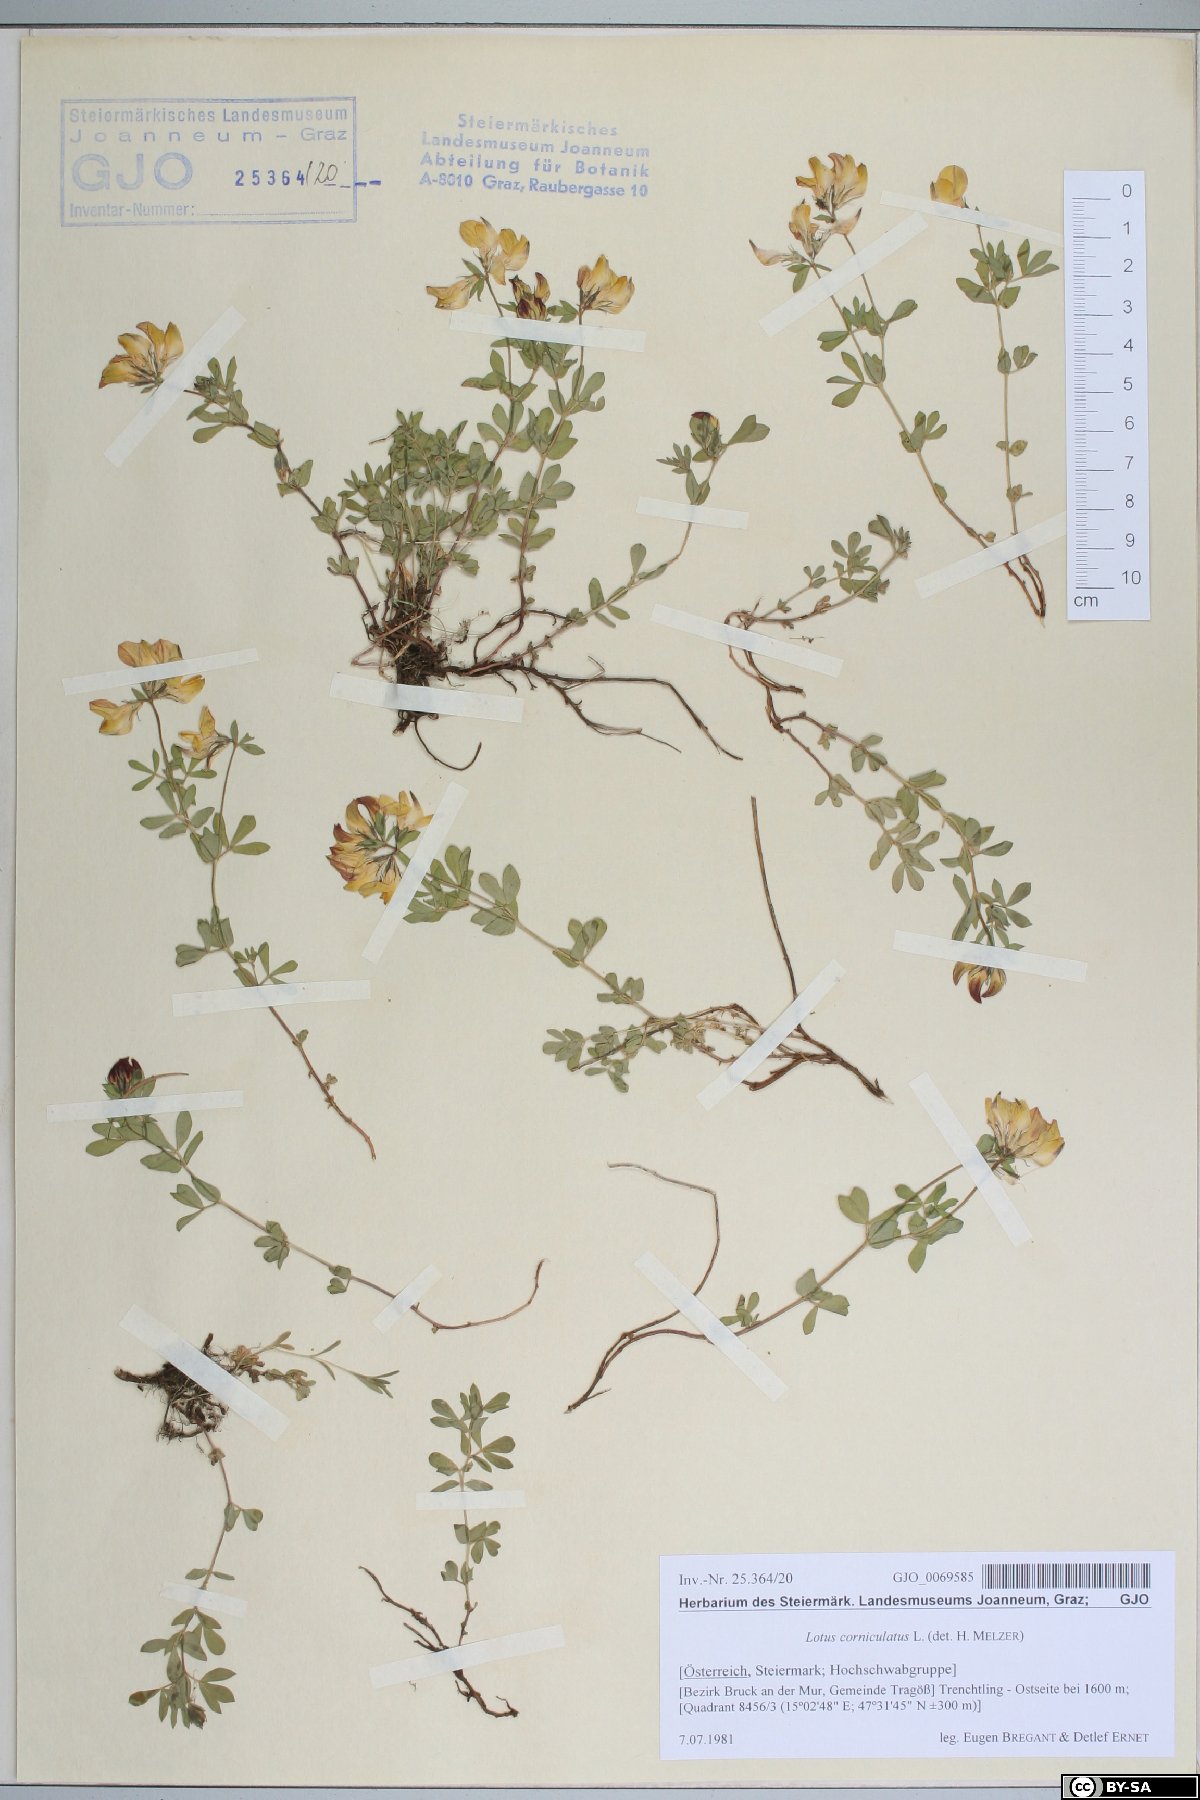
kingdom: Plantae
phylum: Tracheophyta
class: Magnoliopsida
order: Fabales
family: Fabaceae
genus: Lotus
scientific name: Lotus corniculatus
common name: Common bird's-foot-trefoil
